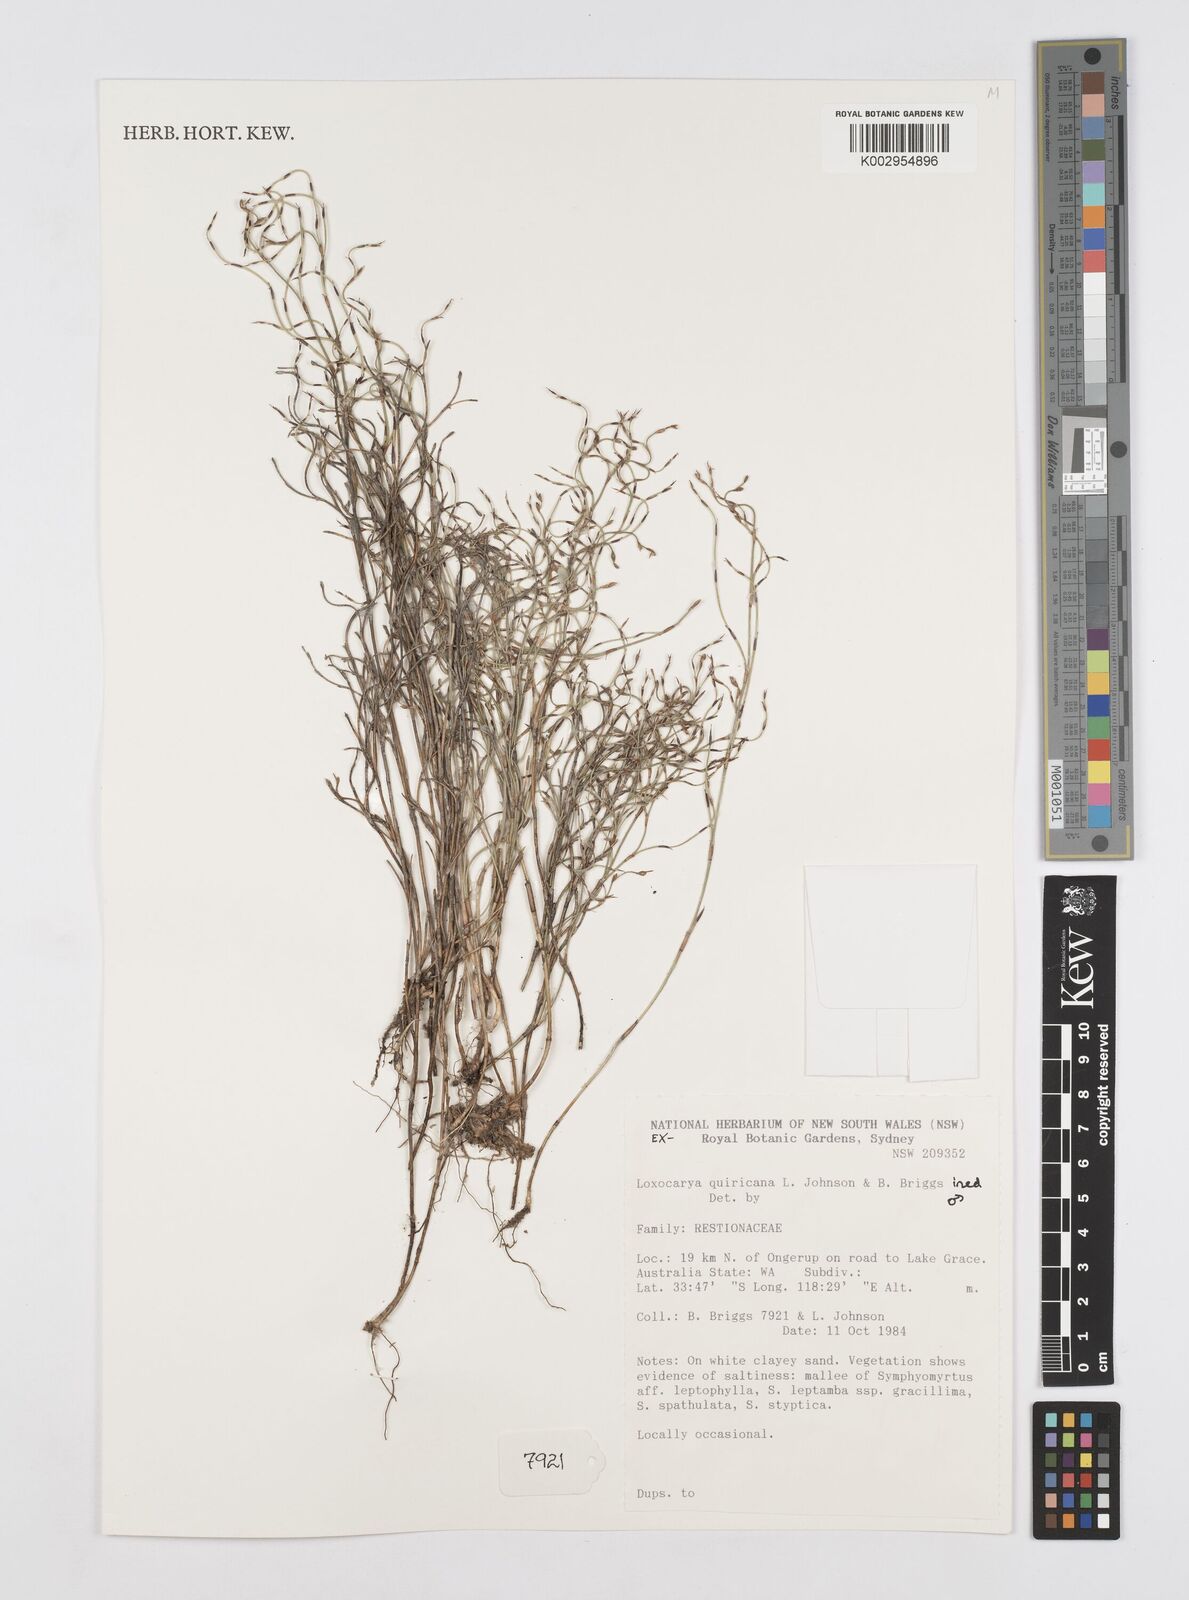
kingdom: Plantae
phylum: Tracheophyta
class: Liliopsida
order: Poales
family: Restionaceae
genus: Desmocladus
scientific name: Desmocladus quiricanus
